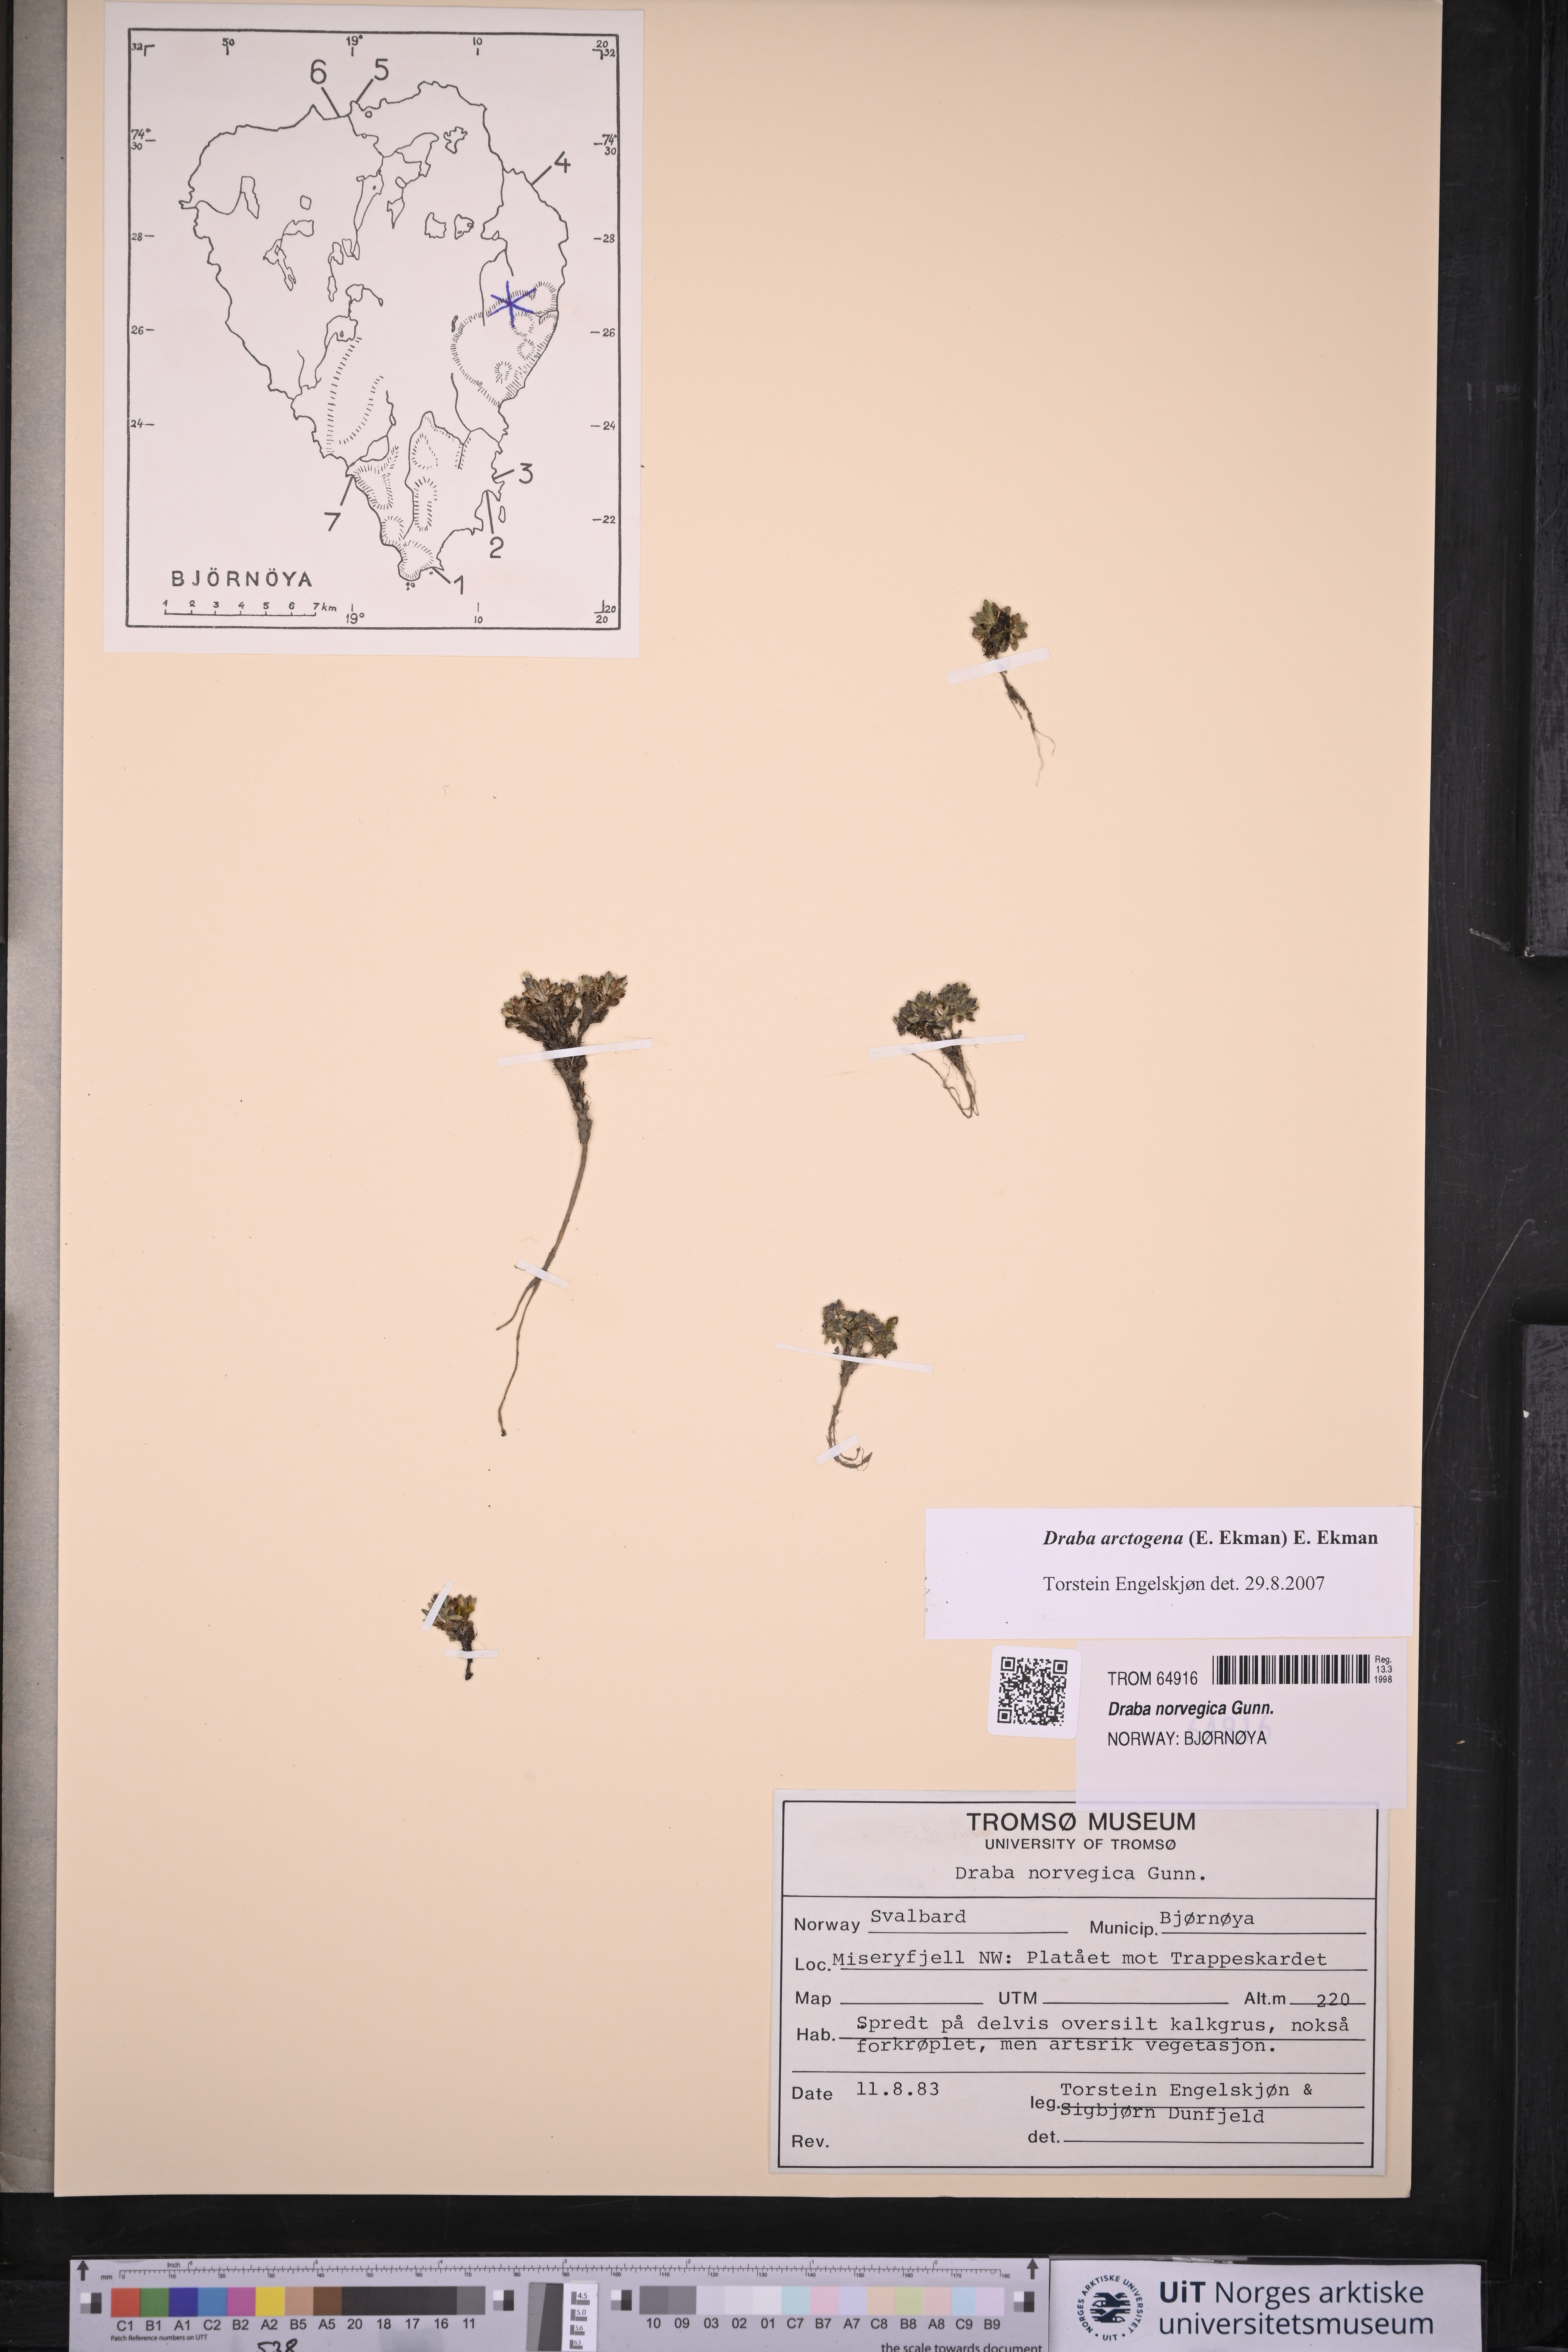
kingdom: Plantae
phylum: Tracheophyta
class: Magnoliopsida
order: Brassicales
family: Brassicaceae
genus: Draba
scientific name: Draba norvegica
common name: Rock whitlowgrass
